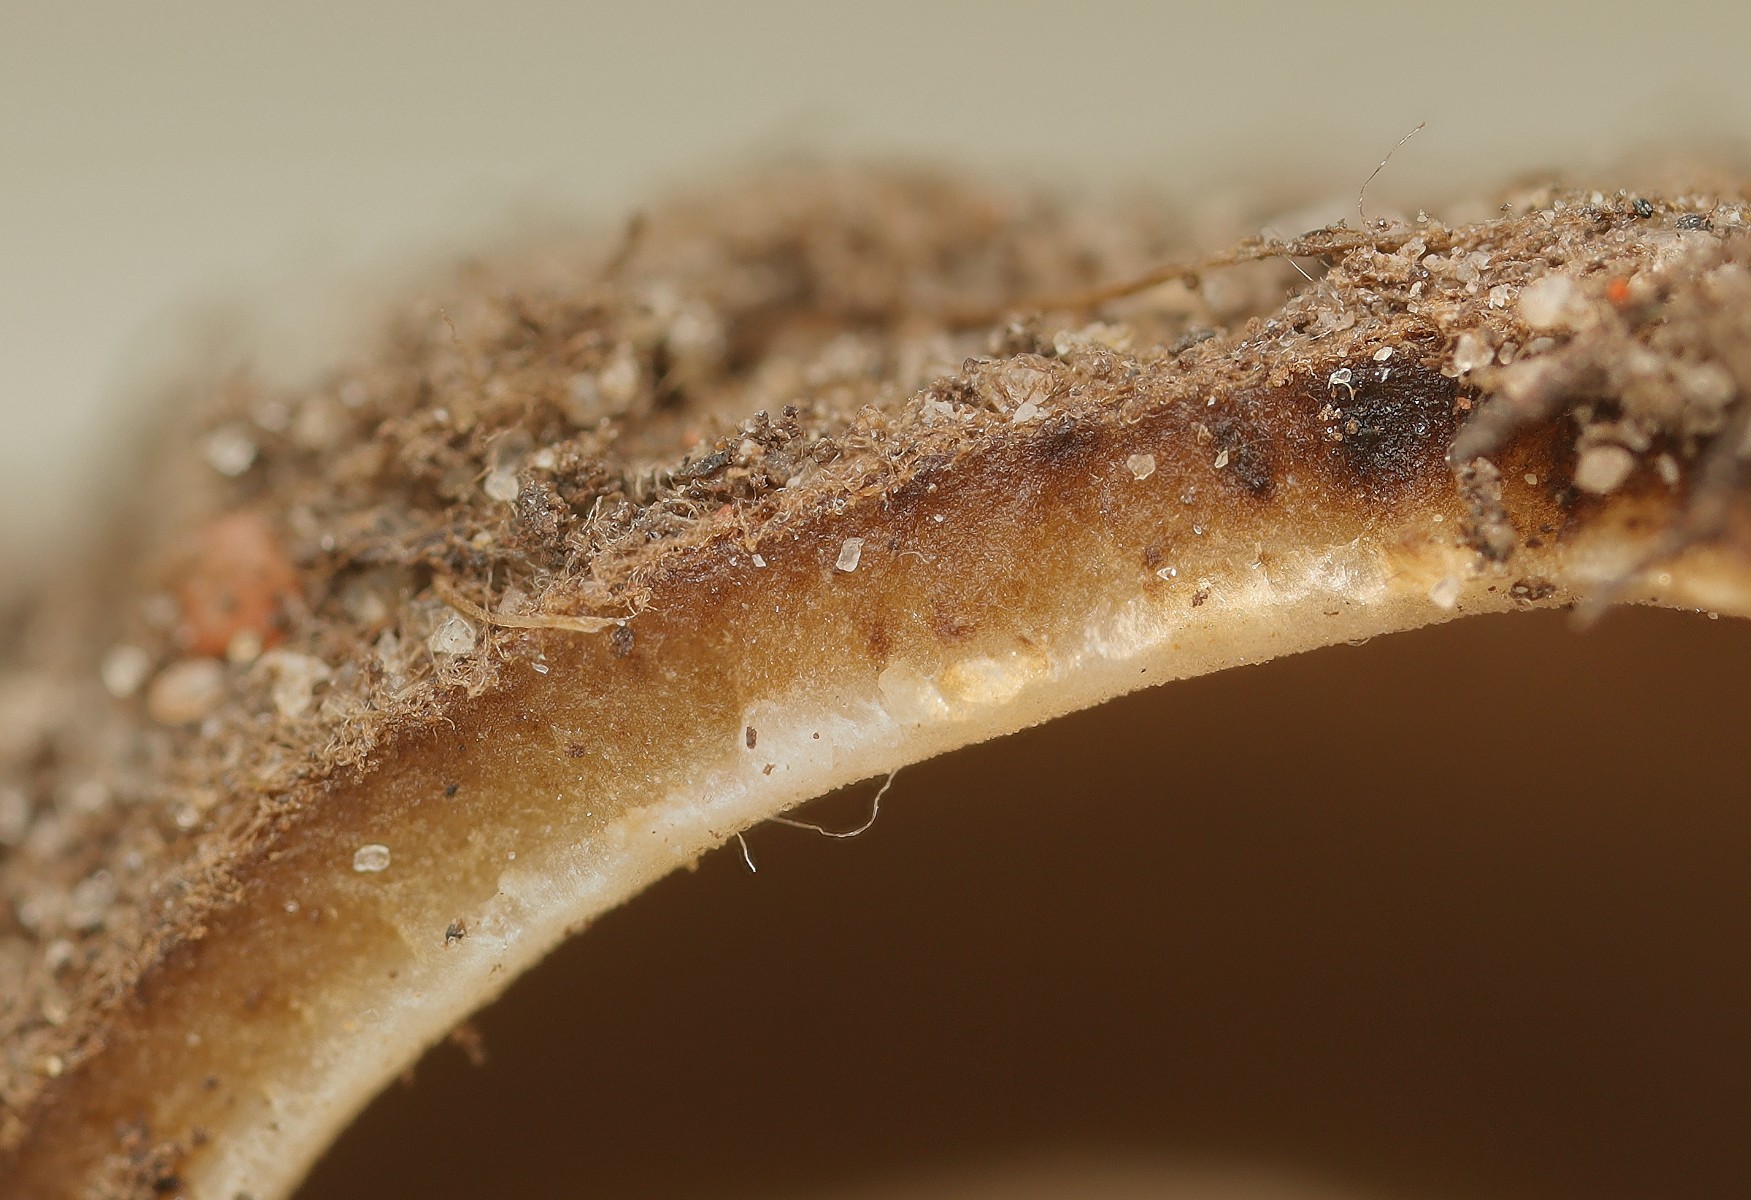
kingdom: Fungi
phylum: Ascomycota
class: Pezizomycetes
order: Pezizales
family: Pyronemataceae
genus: Geopora
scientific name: Geopora arenicola
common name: trøffel-jordbæger
